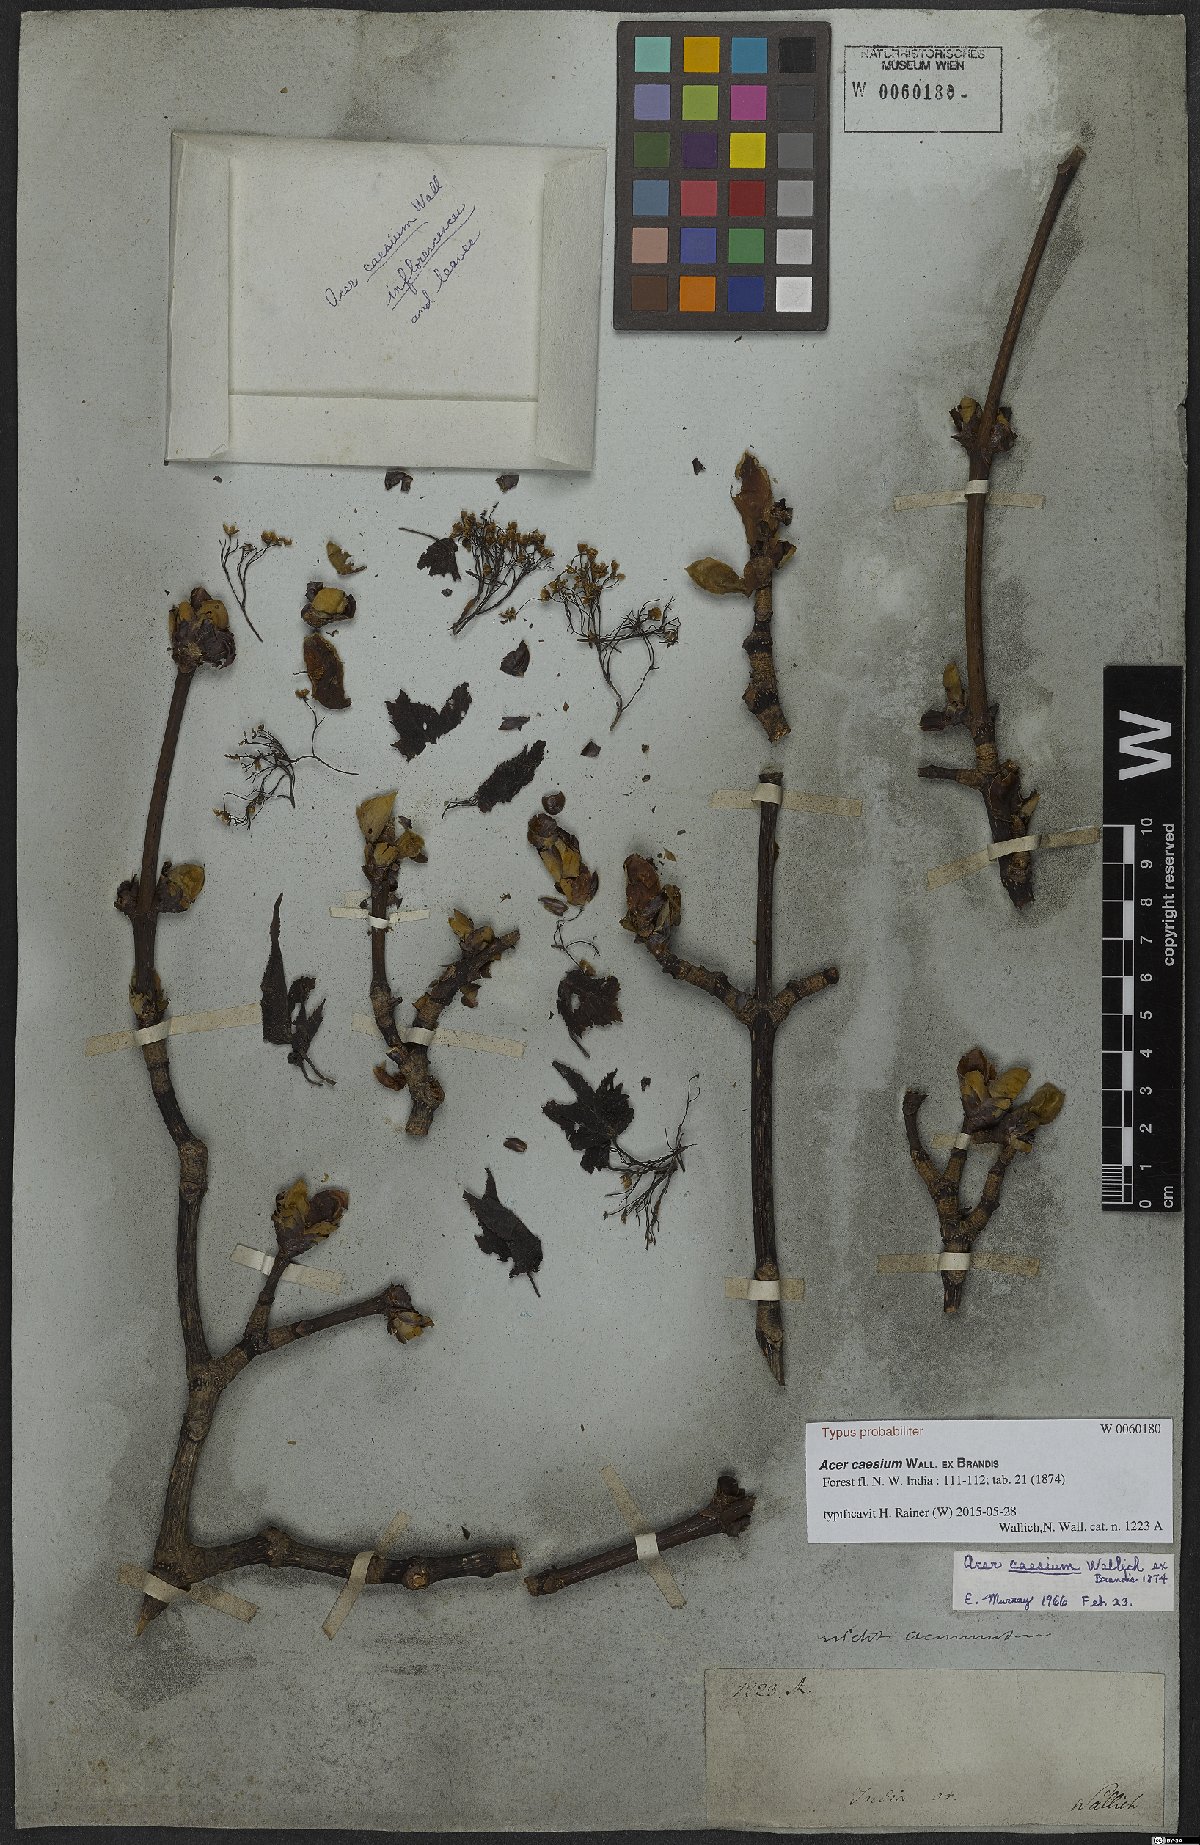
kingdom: Plantae
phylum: Tracheophyta
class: Magnoliopsida
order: Sapindales
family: Sapindaceae
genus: Acer
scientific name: Acer caesium
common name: Indian maple
